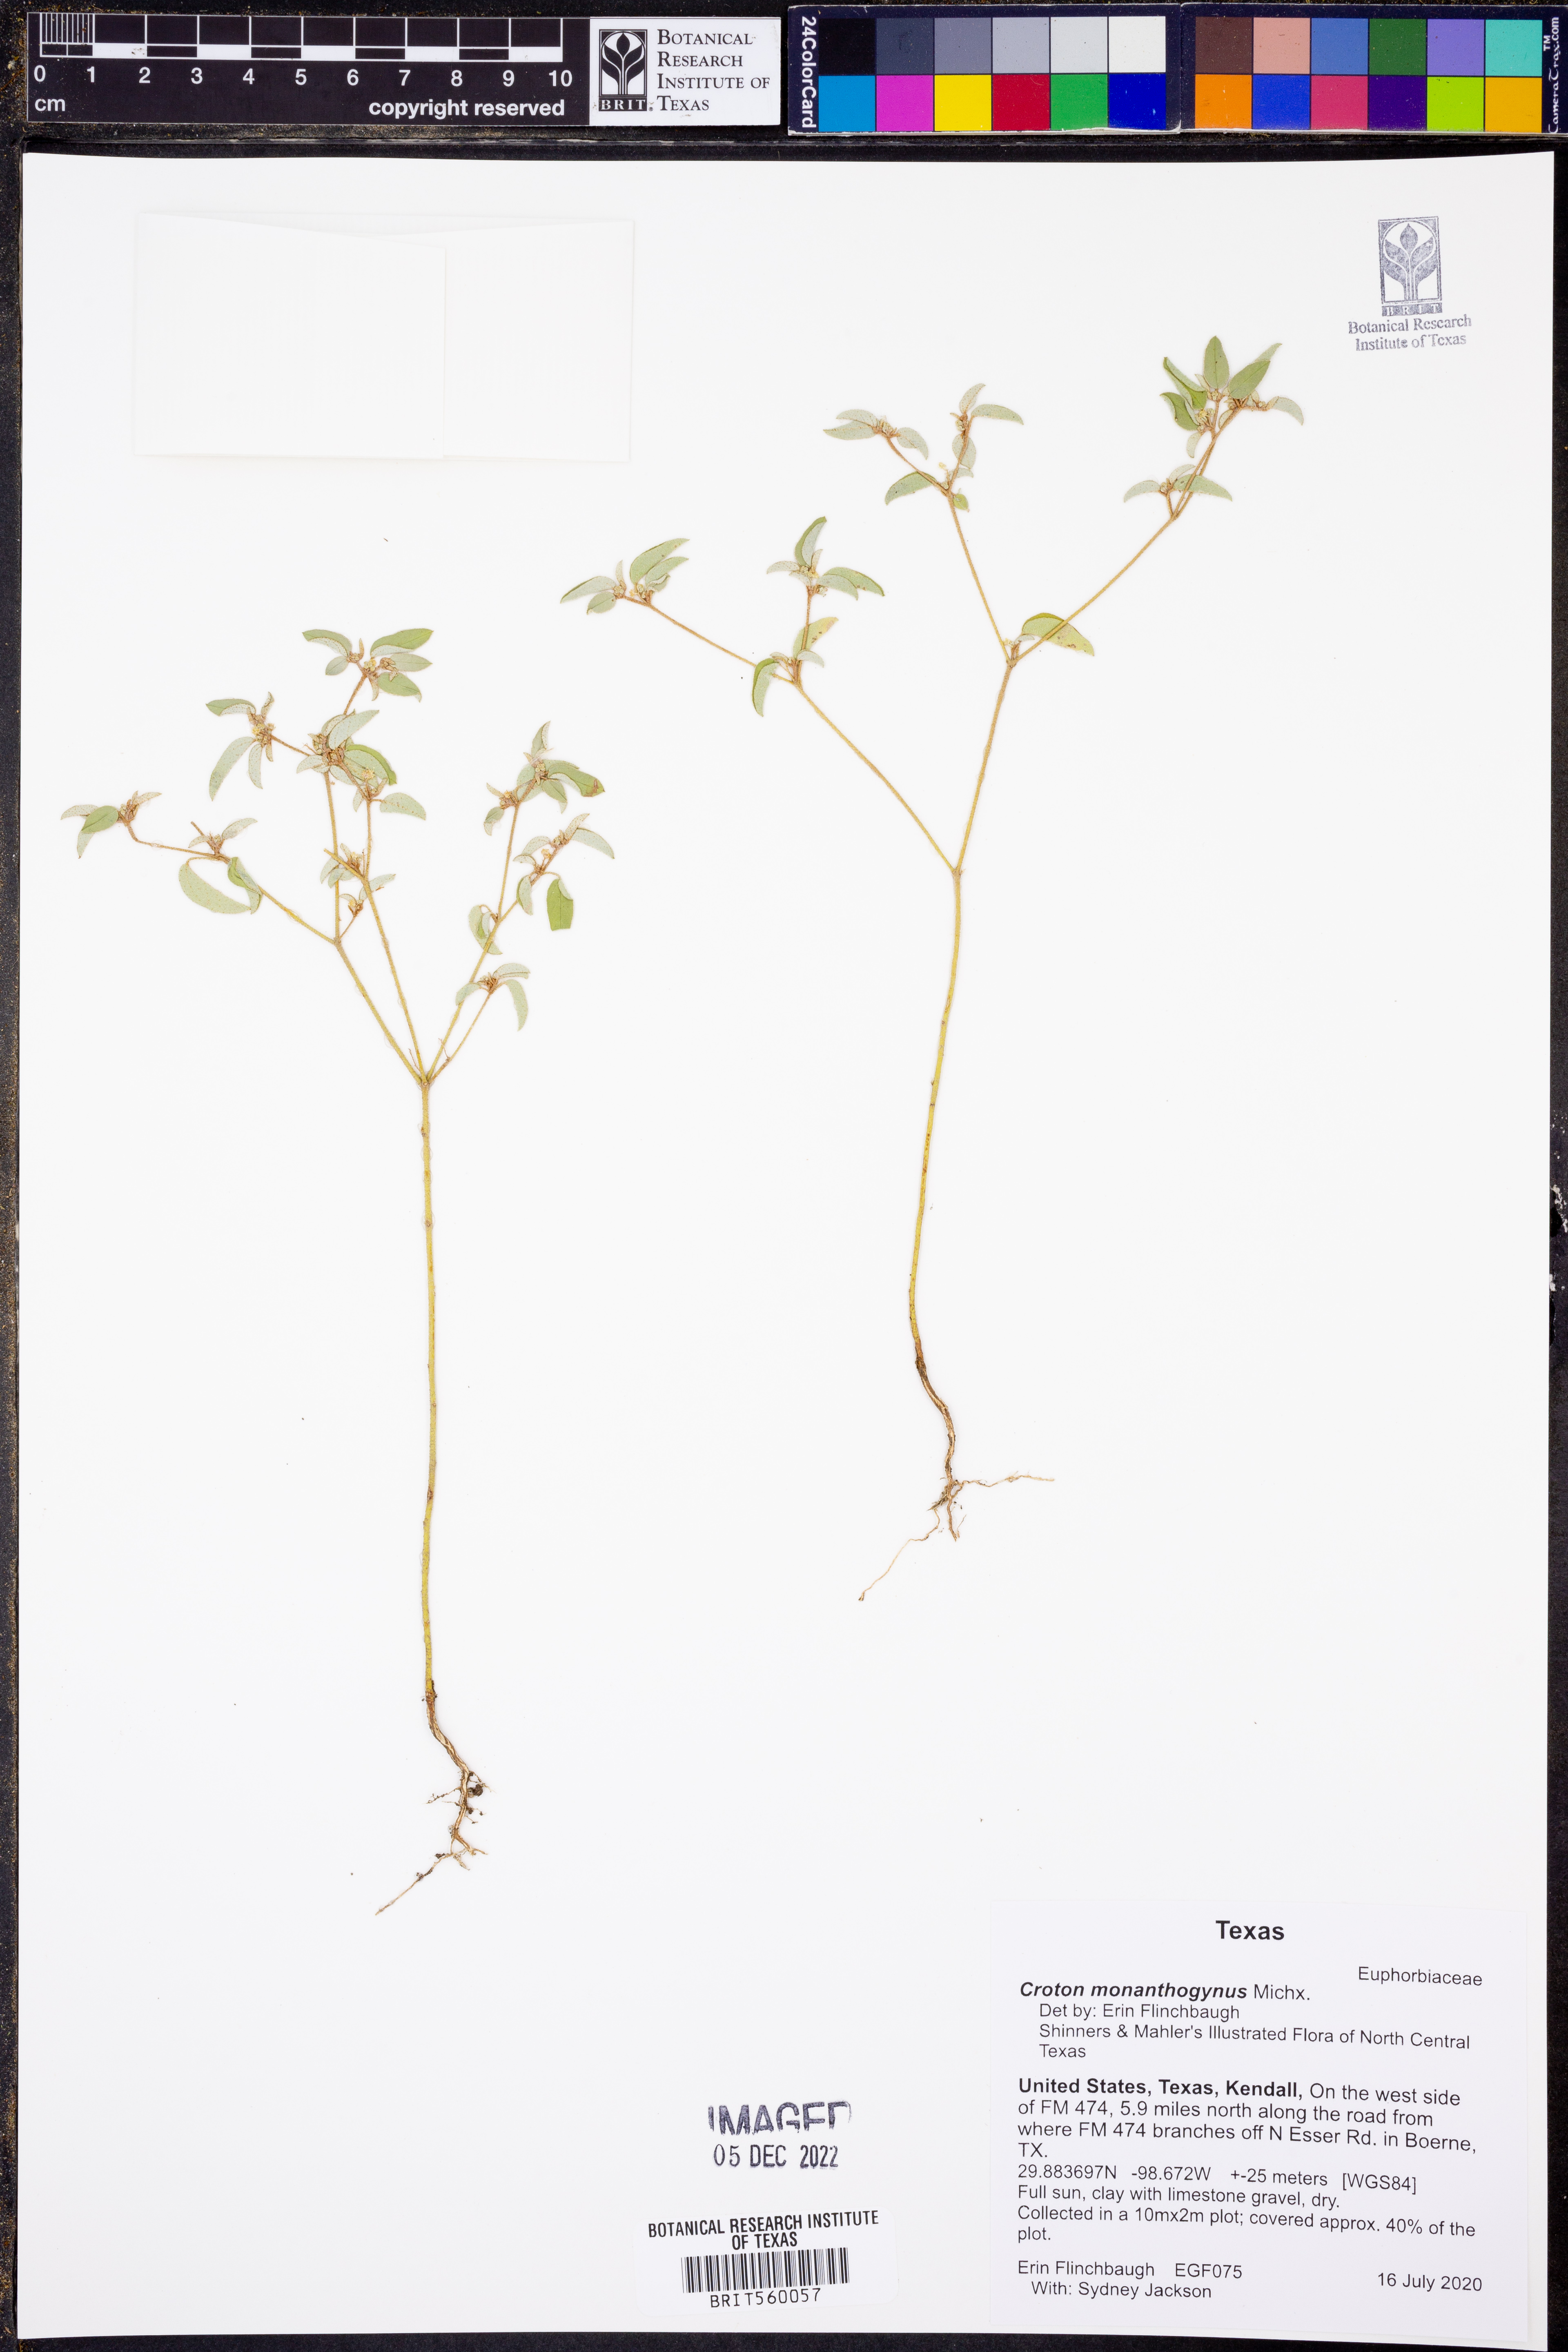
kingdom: Plantae
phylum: Tracheophyta
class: Magnoliopsida
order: Malpighiales
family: Euphorbiaceae
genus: Croton
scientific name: Croton monanthogynus
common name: One-seed croton
